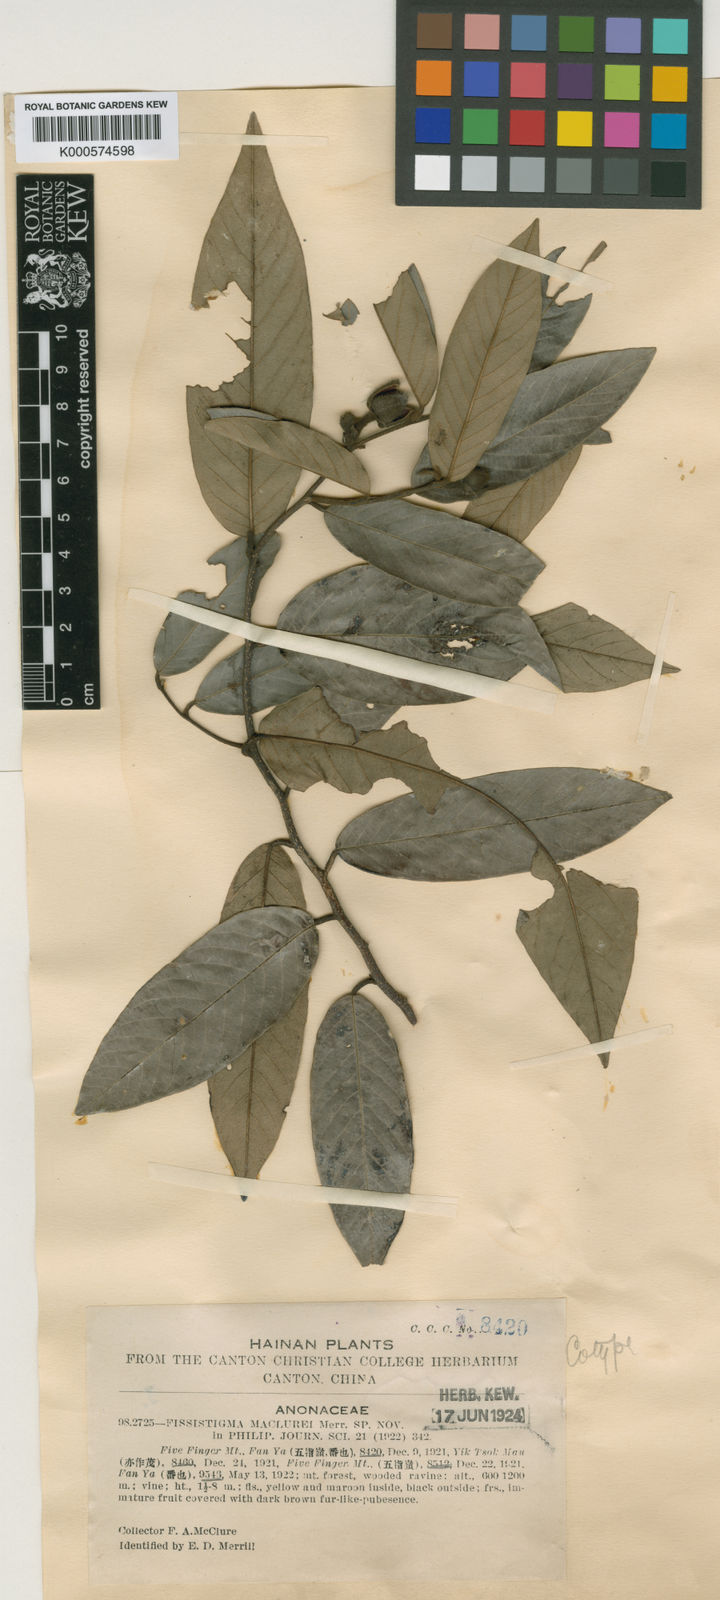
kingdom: Plantae
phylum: Tracheophyta
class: Magnoliopsida
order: Magnoliales
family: Annonaceae
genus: Fissistigma
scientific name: Fissistigma maclurei
